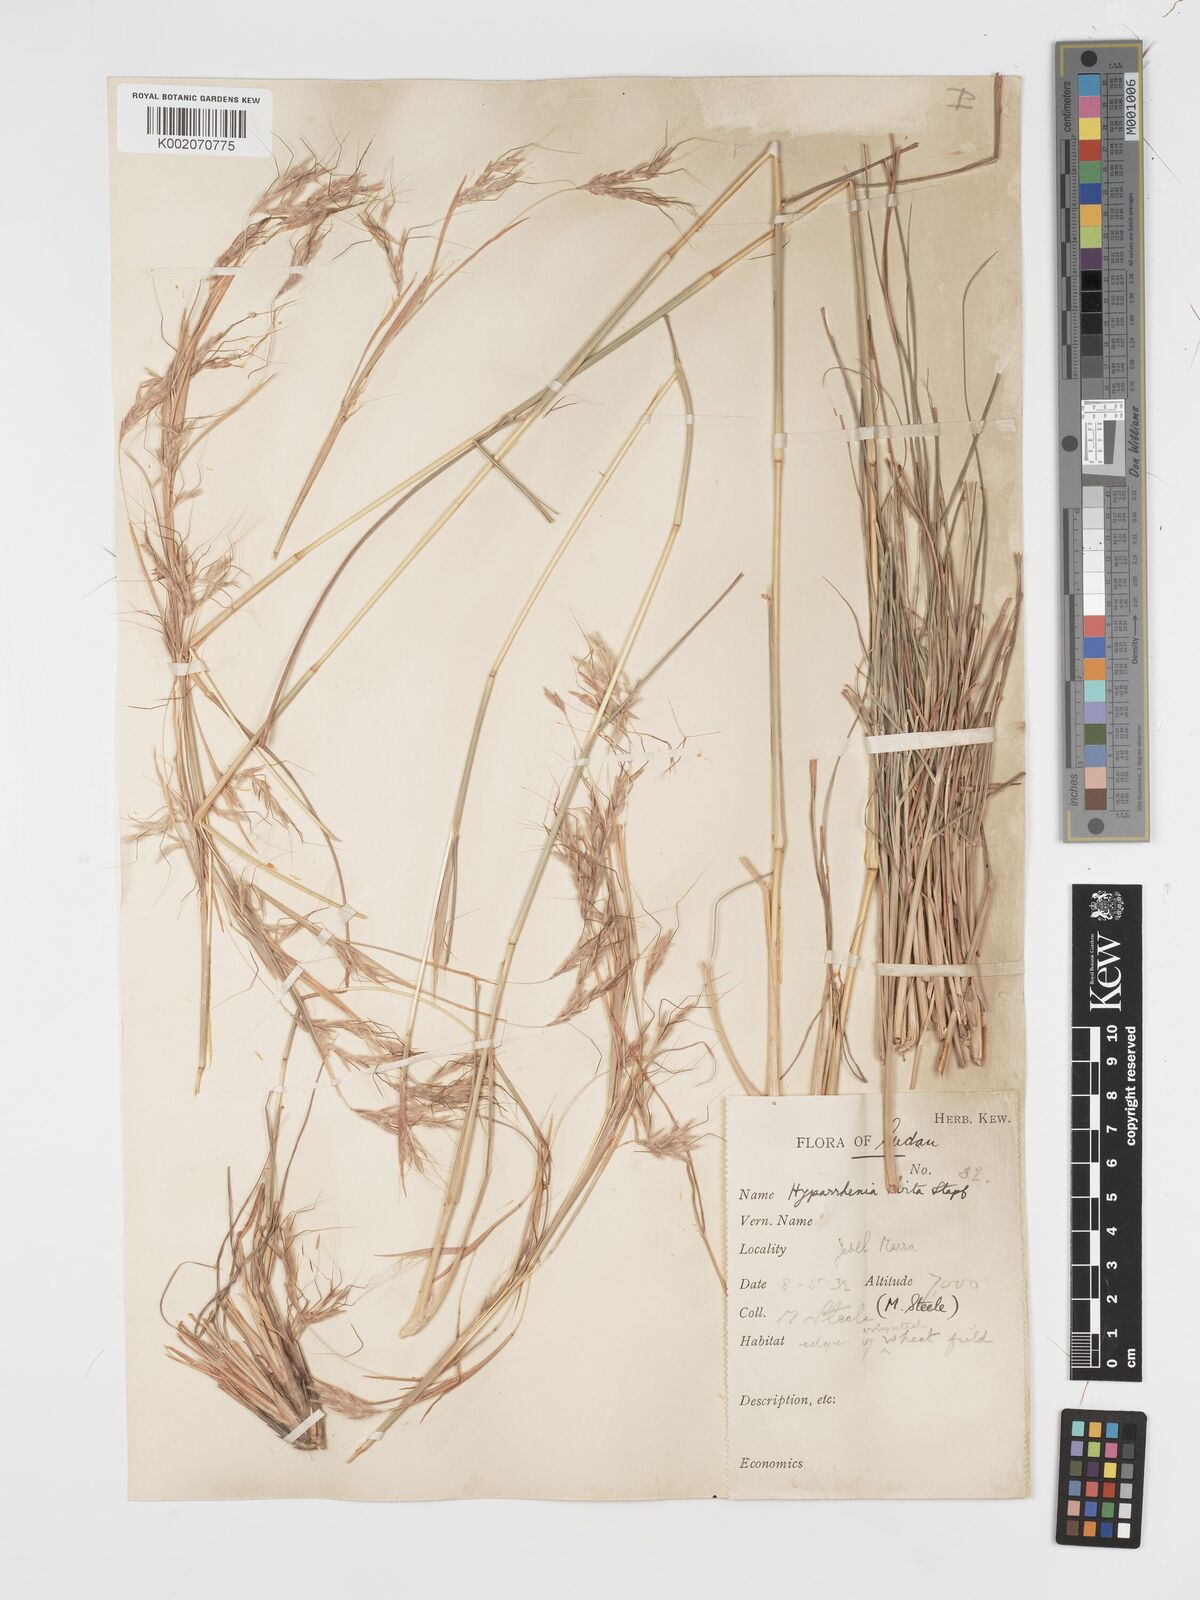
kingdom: Plantae
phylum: Tracheophyta
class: Liliopsida
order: Poales
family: Poaceae
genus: Hyparrhenia
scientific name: Hyparrhenia hirta
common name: Thatching grass
